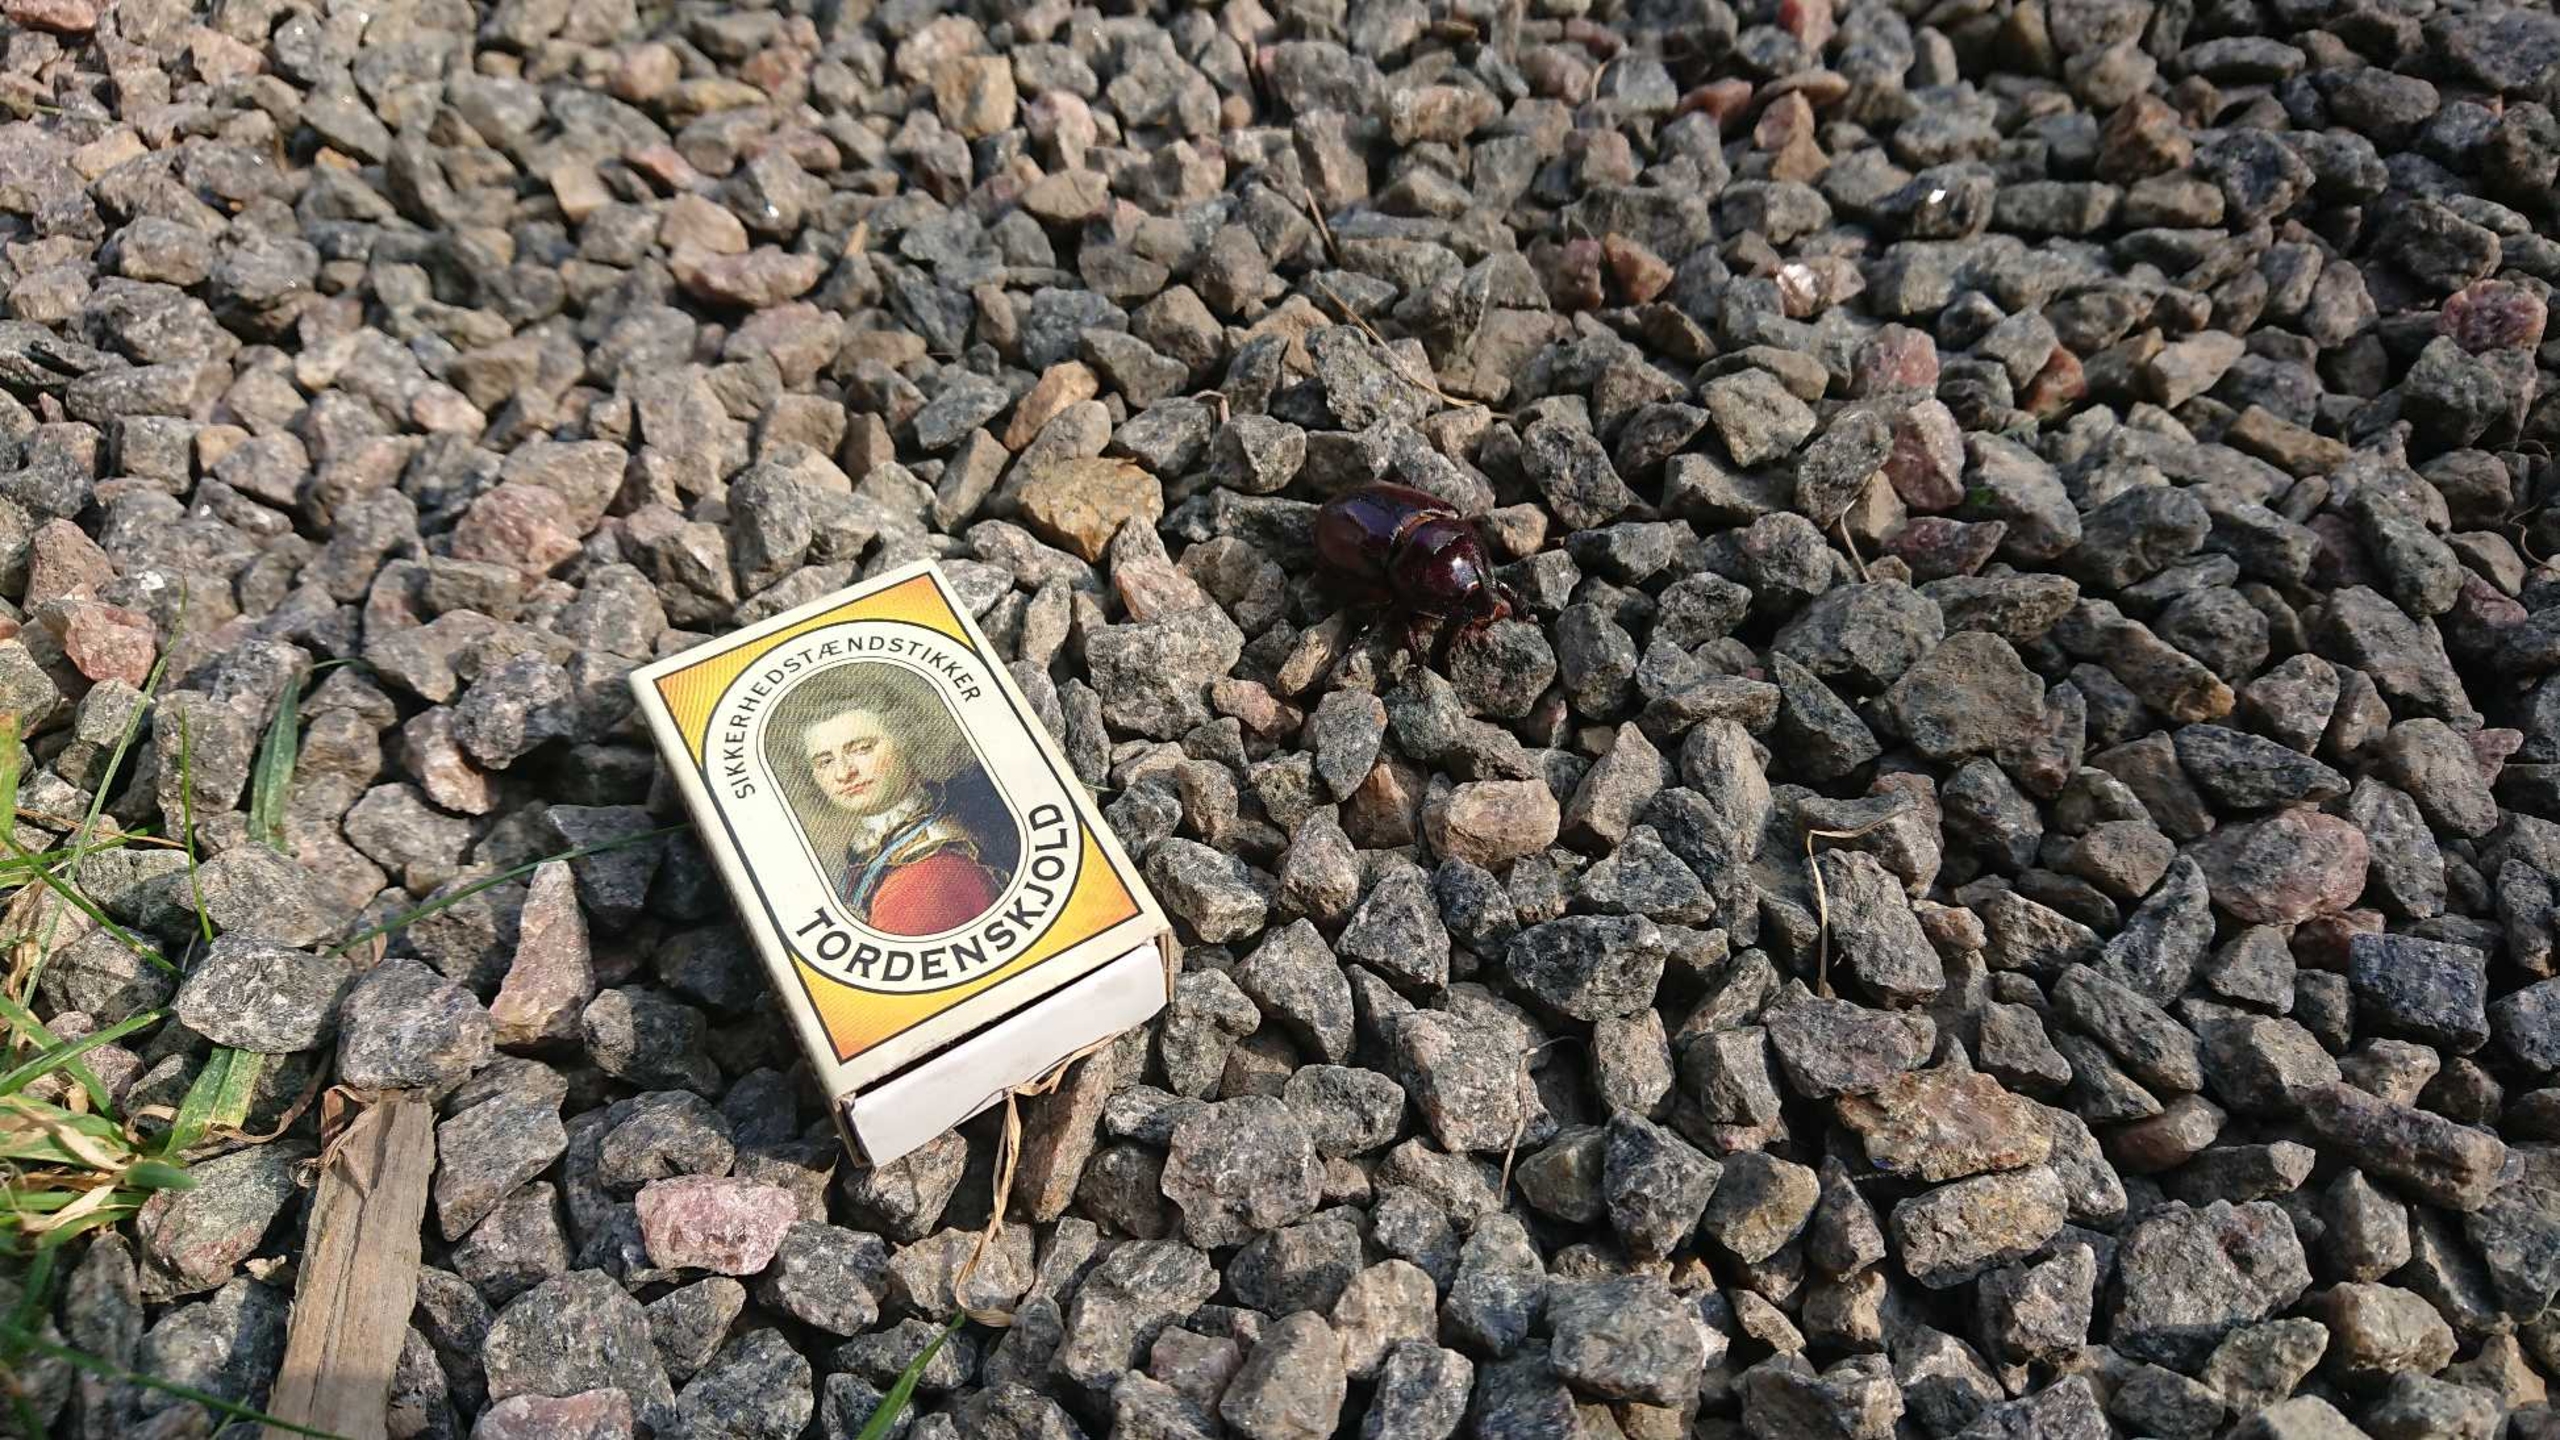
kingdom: Animalia
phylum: Arthropoda
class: Insecta
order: Coleoptera
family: Scarabaeidae
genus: Oryctes
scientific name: Oryctes nasicornis
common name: Næsehornsbille
